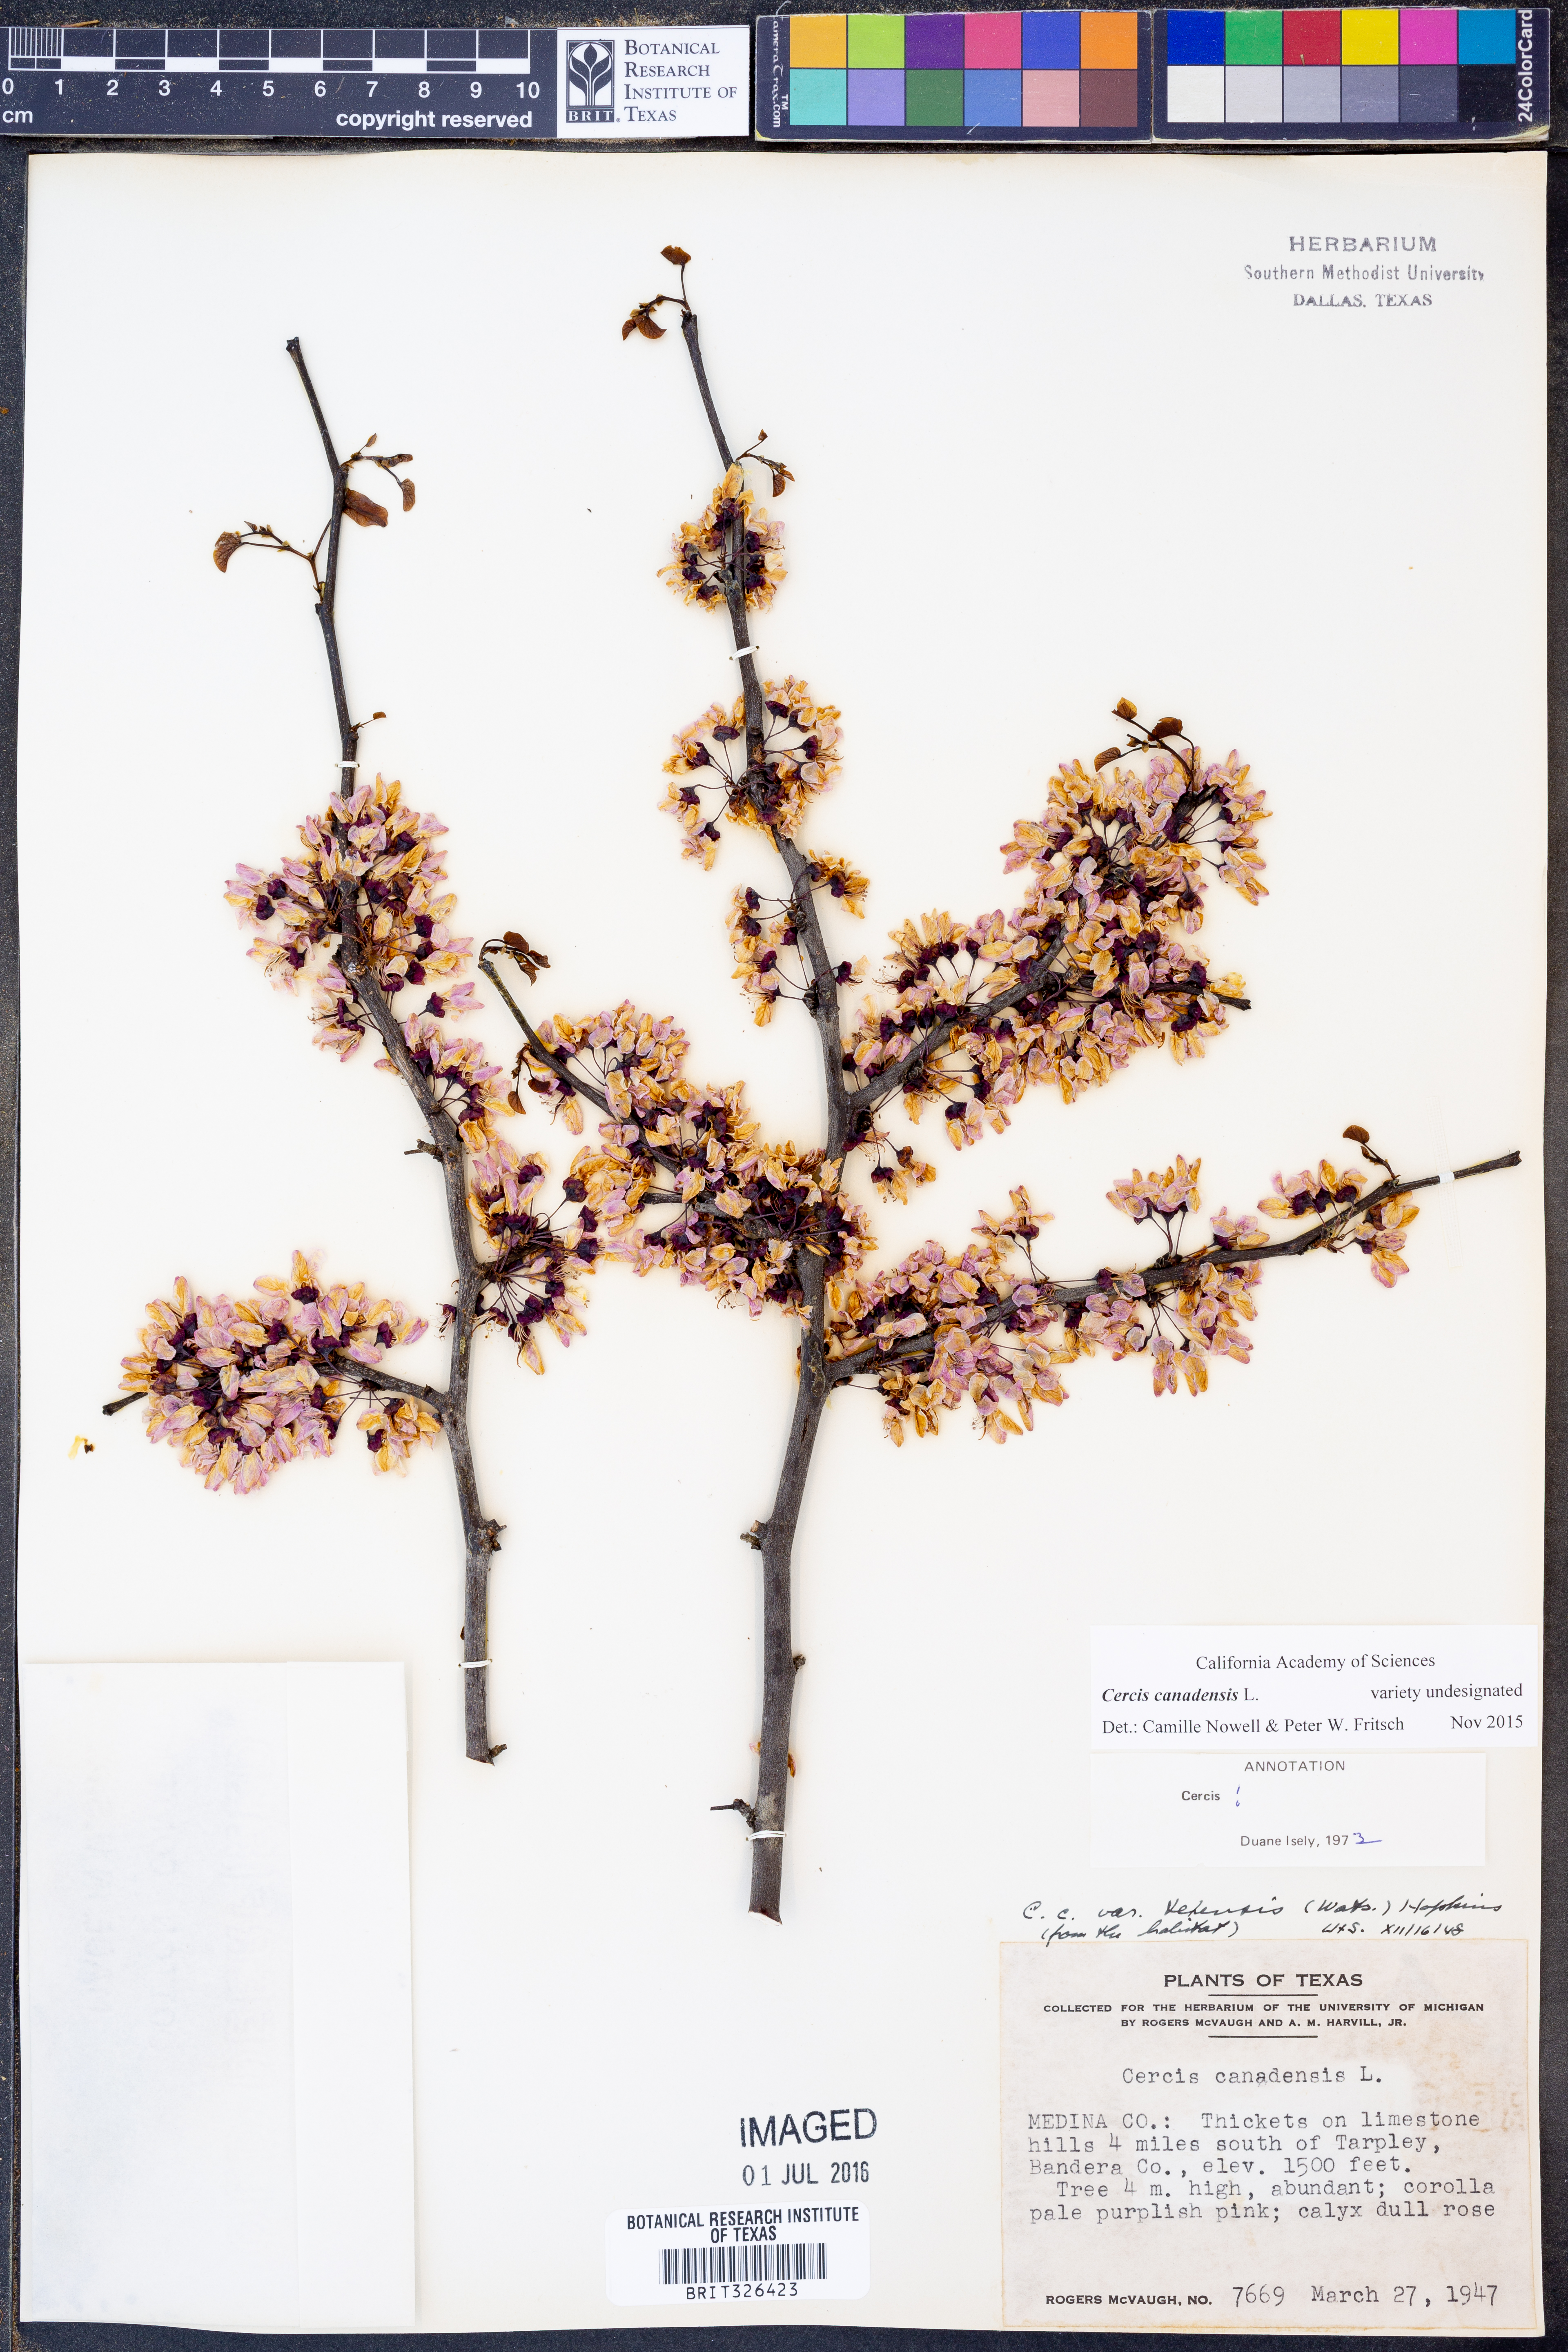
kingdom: Plantae
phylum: Tracheophyta
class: Magnoliopsida
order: Fabales
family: Fabaceae
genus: Cercis
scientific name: Cercis canadensis
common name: Eastern redbud
